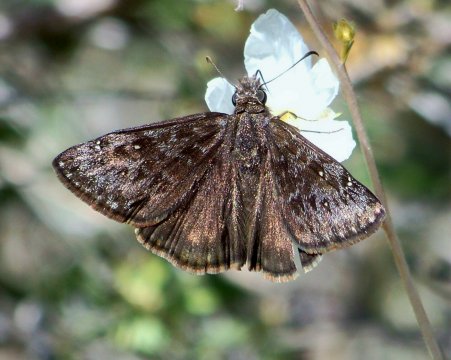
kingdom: Animalia
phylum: Arthropoda
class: Insecta
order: Lepidoptera
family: Hesperiidae
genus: Erynnis
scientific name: Erynnis
